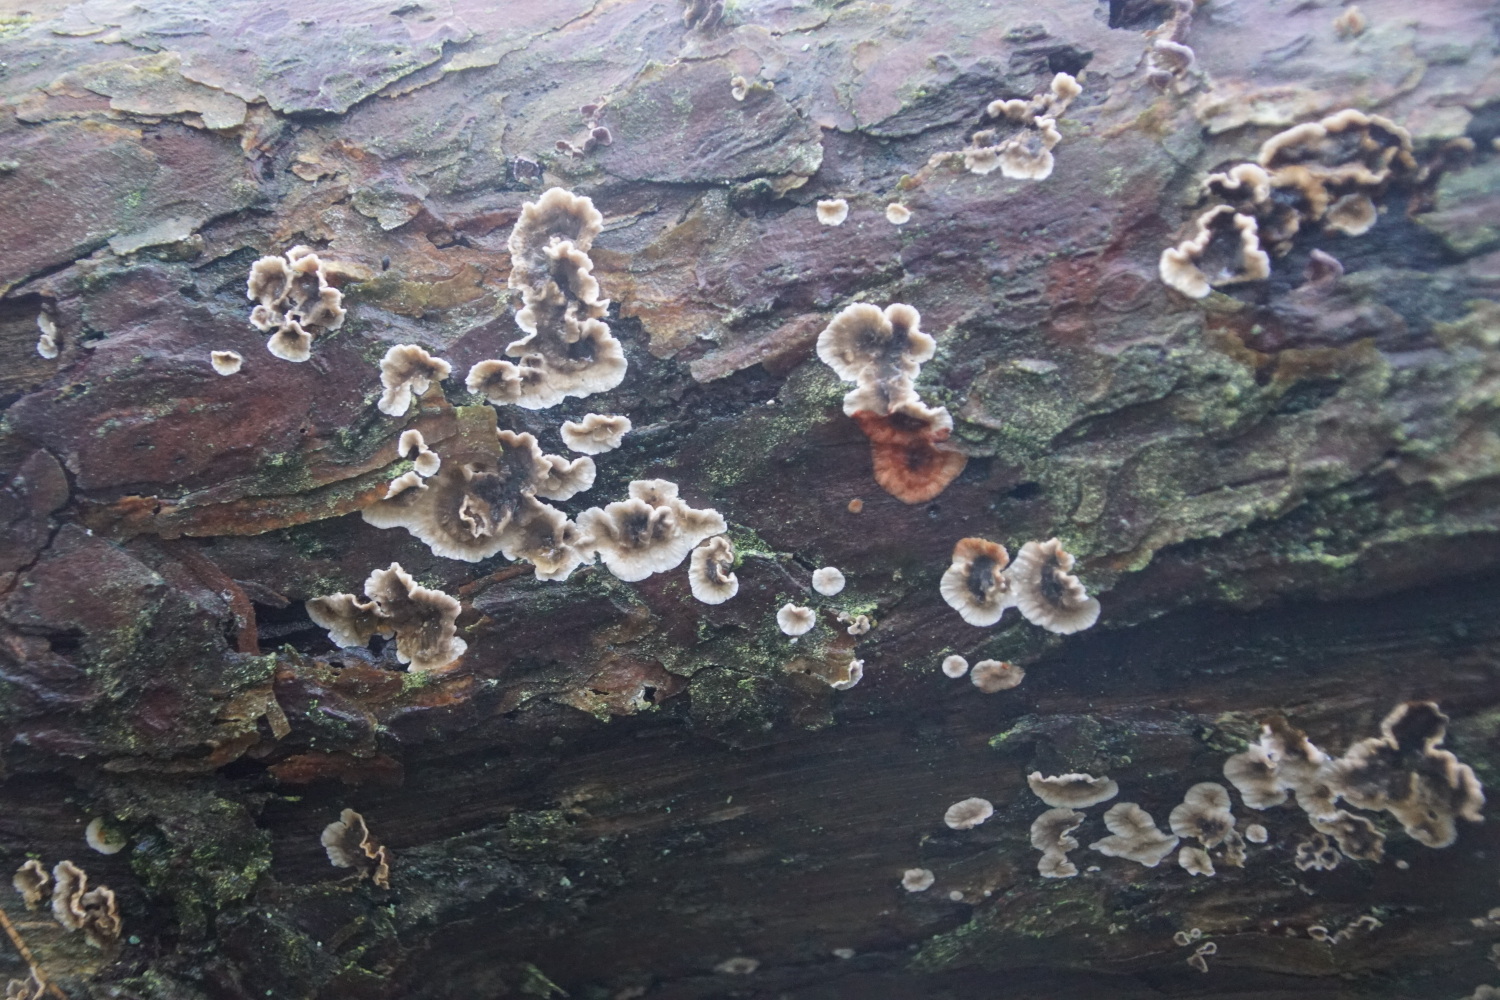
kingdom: Fungi
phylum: Basidiomycota
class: Agaricomycetes
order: Russulales
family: Stereaceae
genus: Stereum
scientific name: Stereum sanguinolentum
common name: blødende lædersvamp
